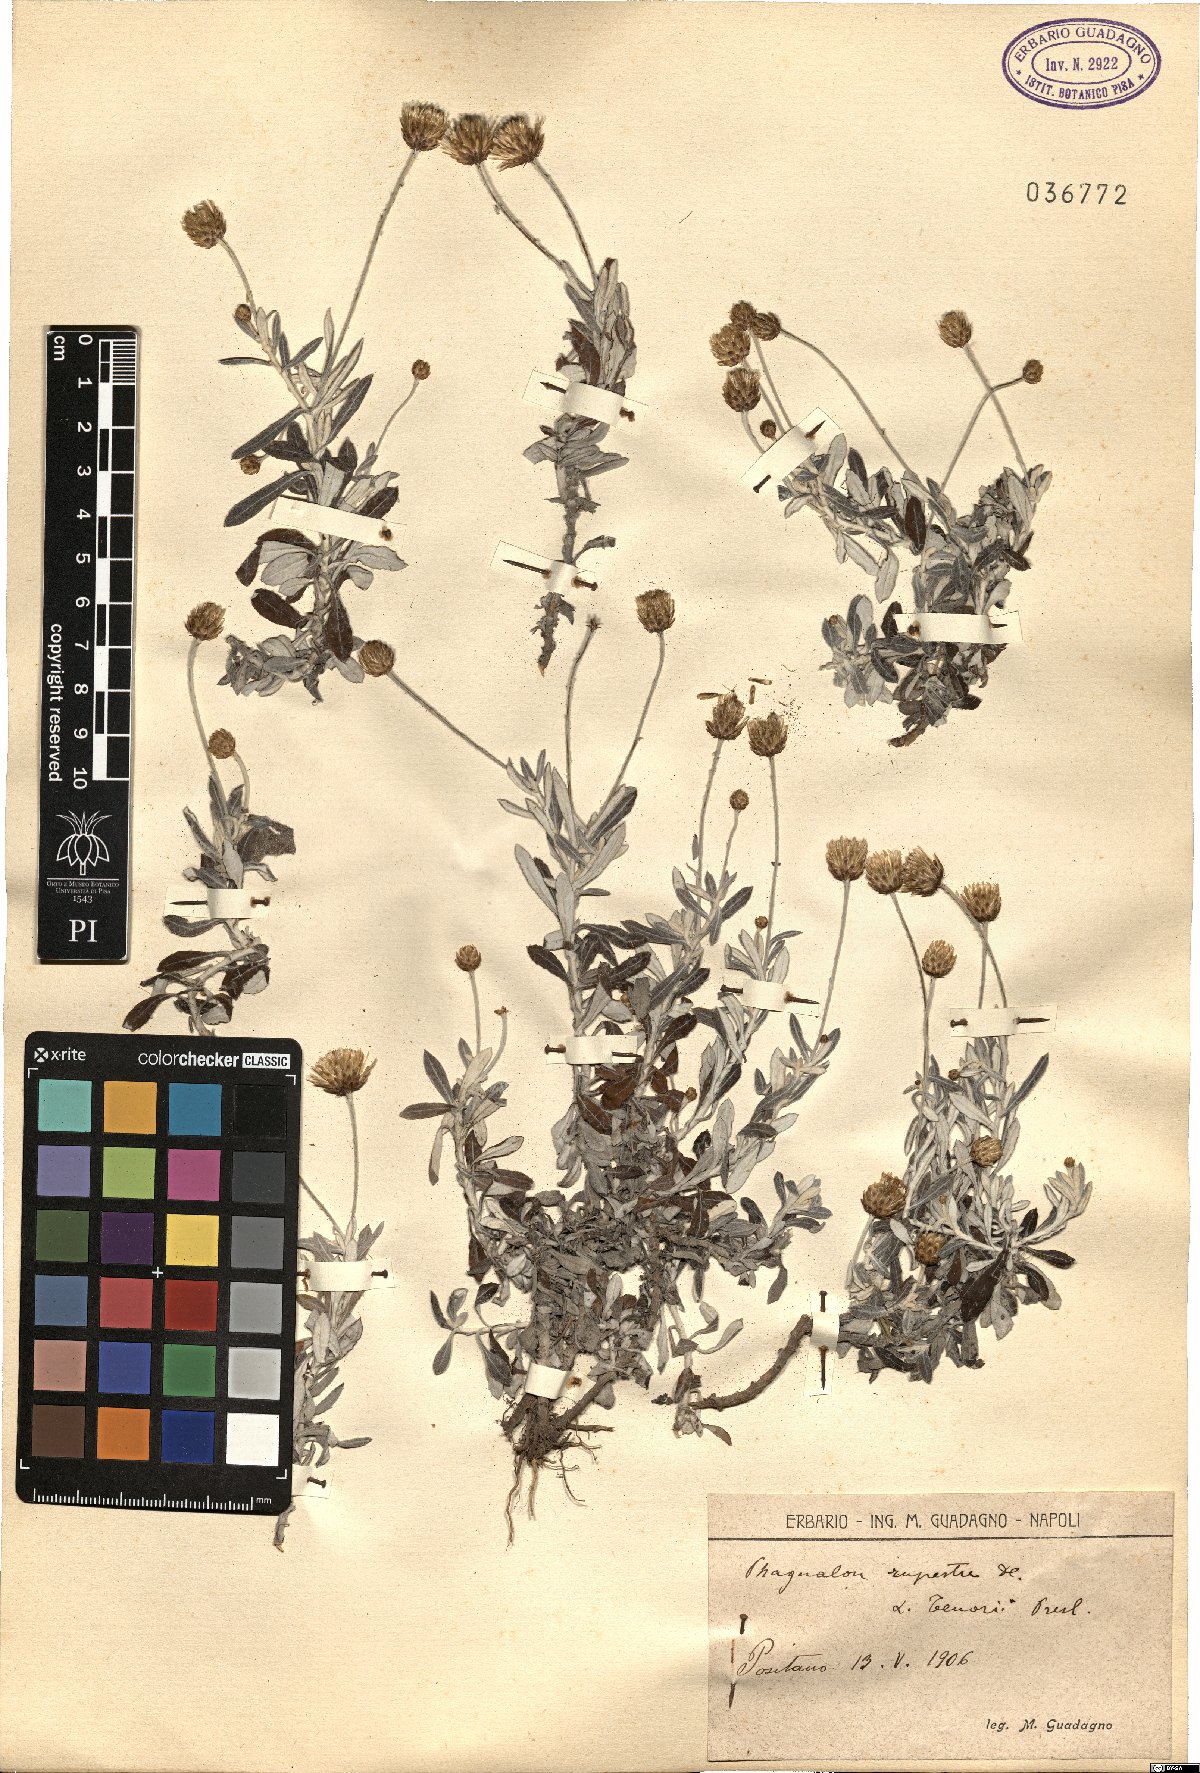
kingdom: Plantae
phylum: Tracheophyta
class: Magnoliopsida
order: Asterales
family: Asteraceae
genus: Phagnalon
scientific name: Phagnalon rupestre
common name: Rock phagnalon
